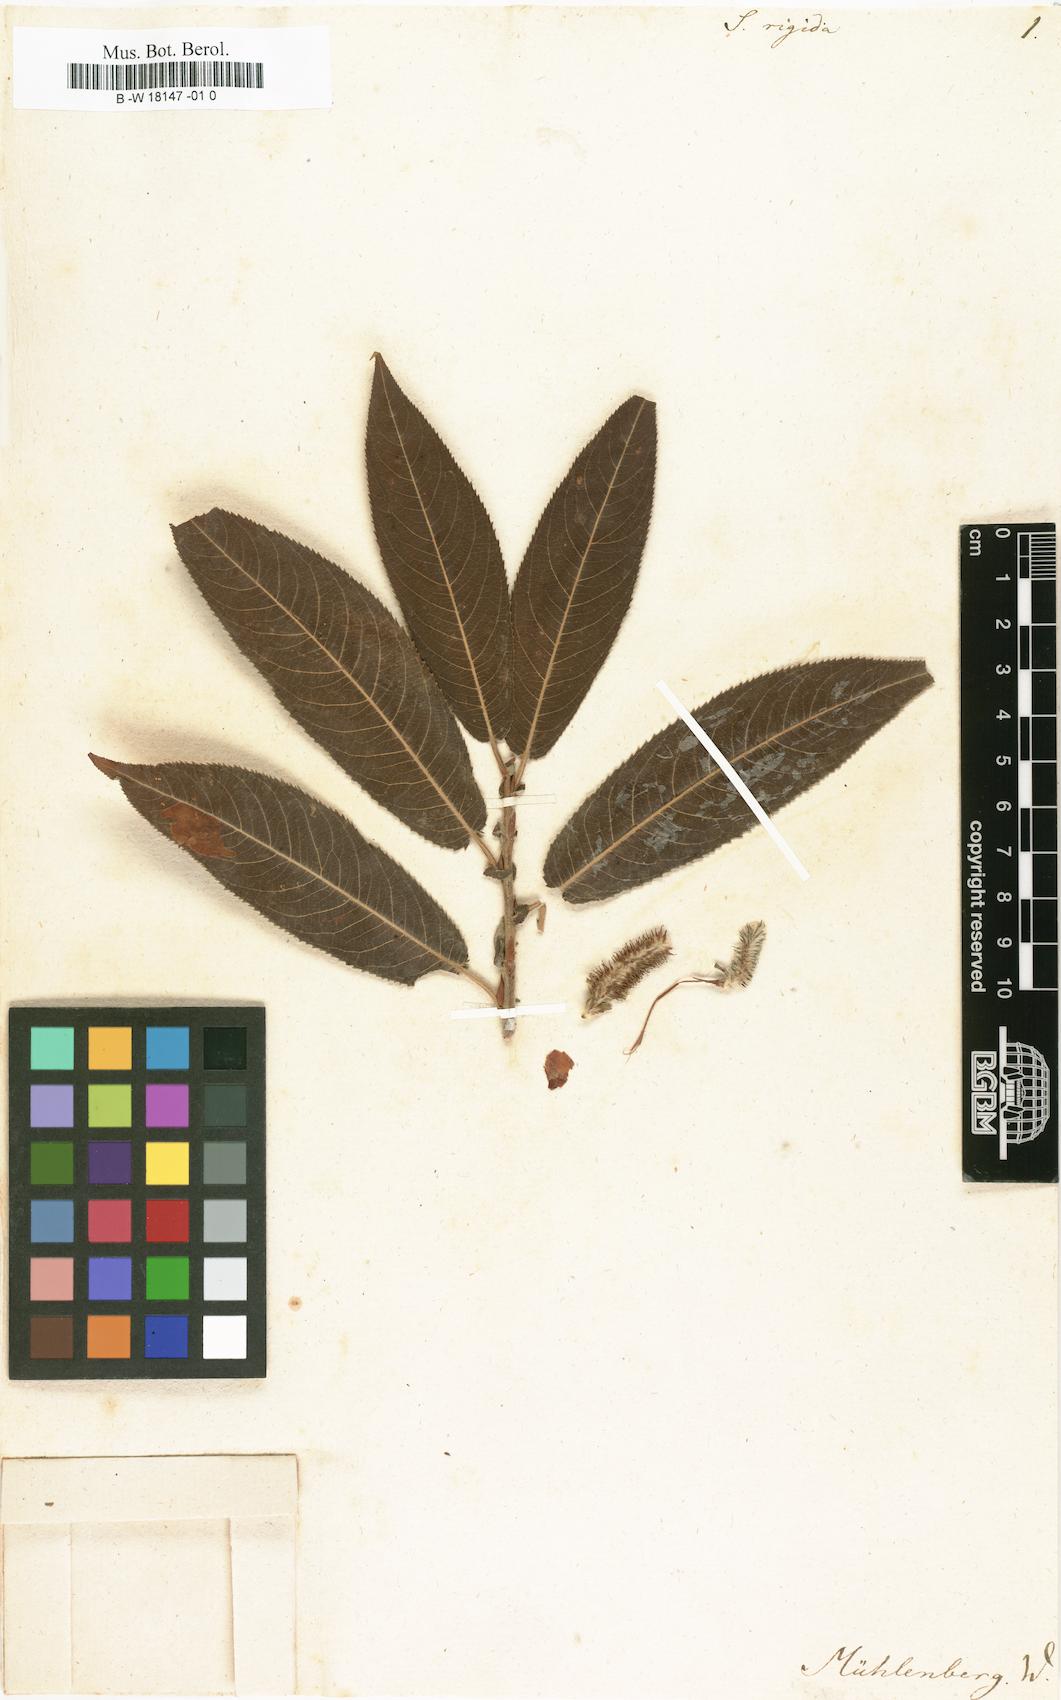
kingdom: Plantae
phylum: Tracheophyta
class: Magnoliopsida
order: Malpighiales
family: Salicaceae
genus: Salix
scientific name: Salix eriocephala
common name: Heart-leaved willow
